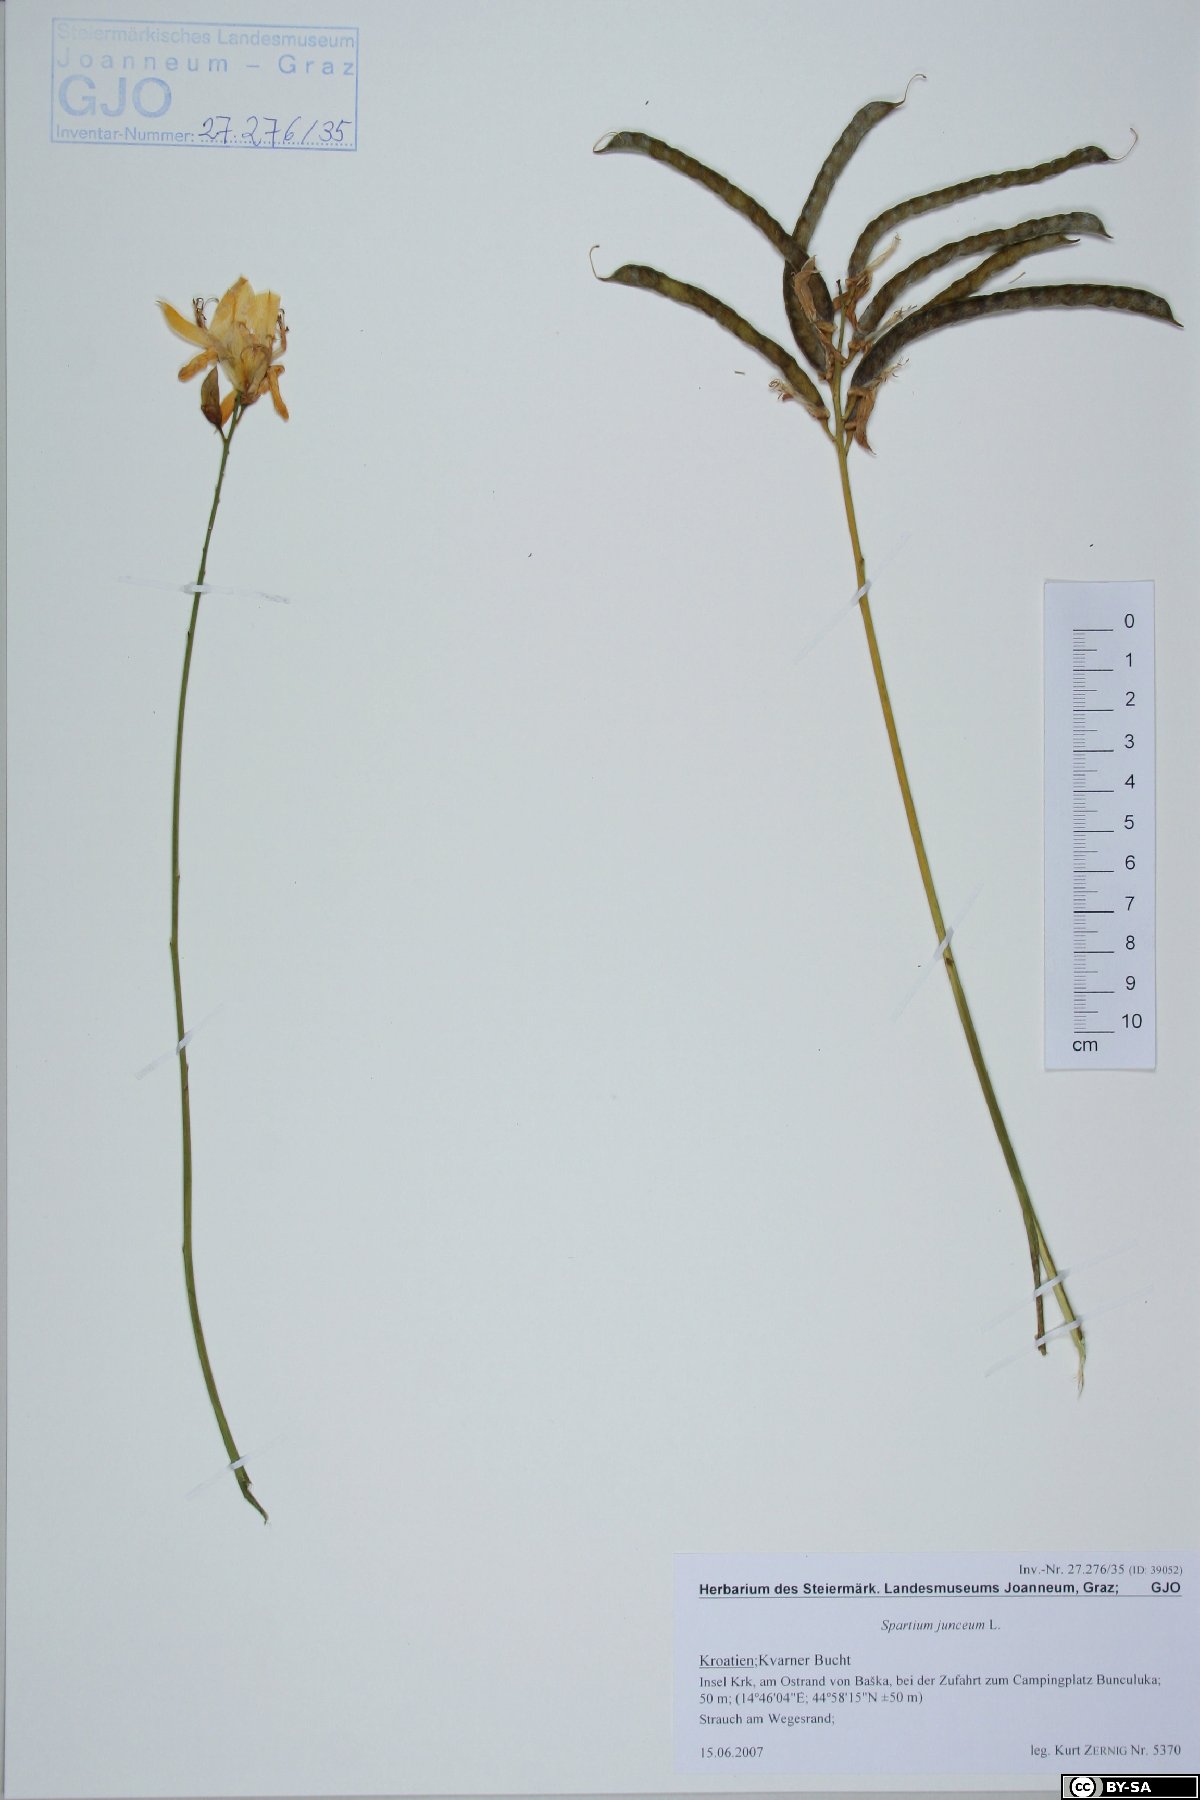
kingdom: Plantae
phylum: Tracheophyta
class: Magnoliopsida
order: Fabales
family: Fabaceae
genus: Spartium
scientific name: Spartium junceum
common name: Spanish broom
